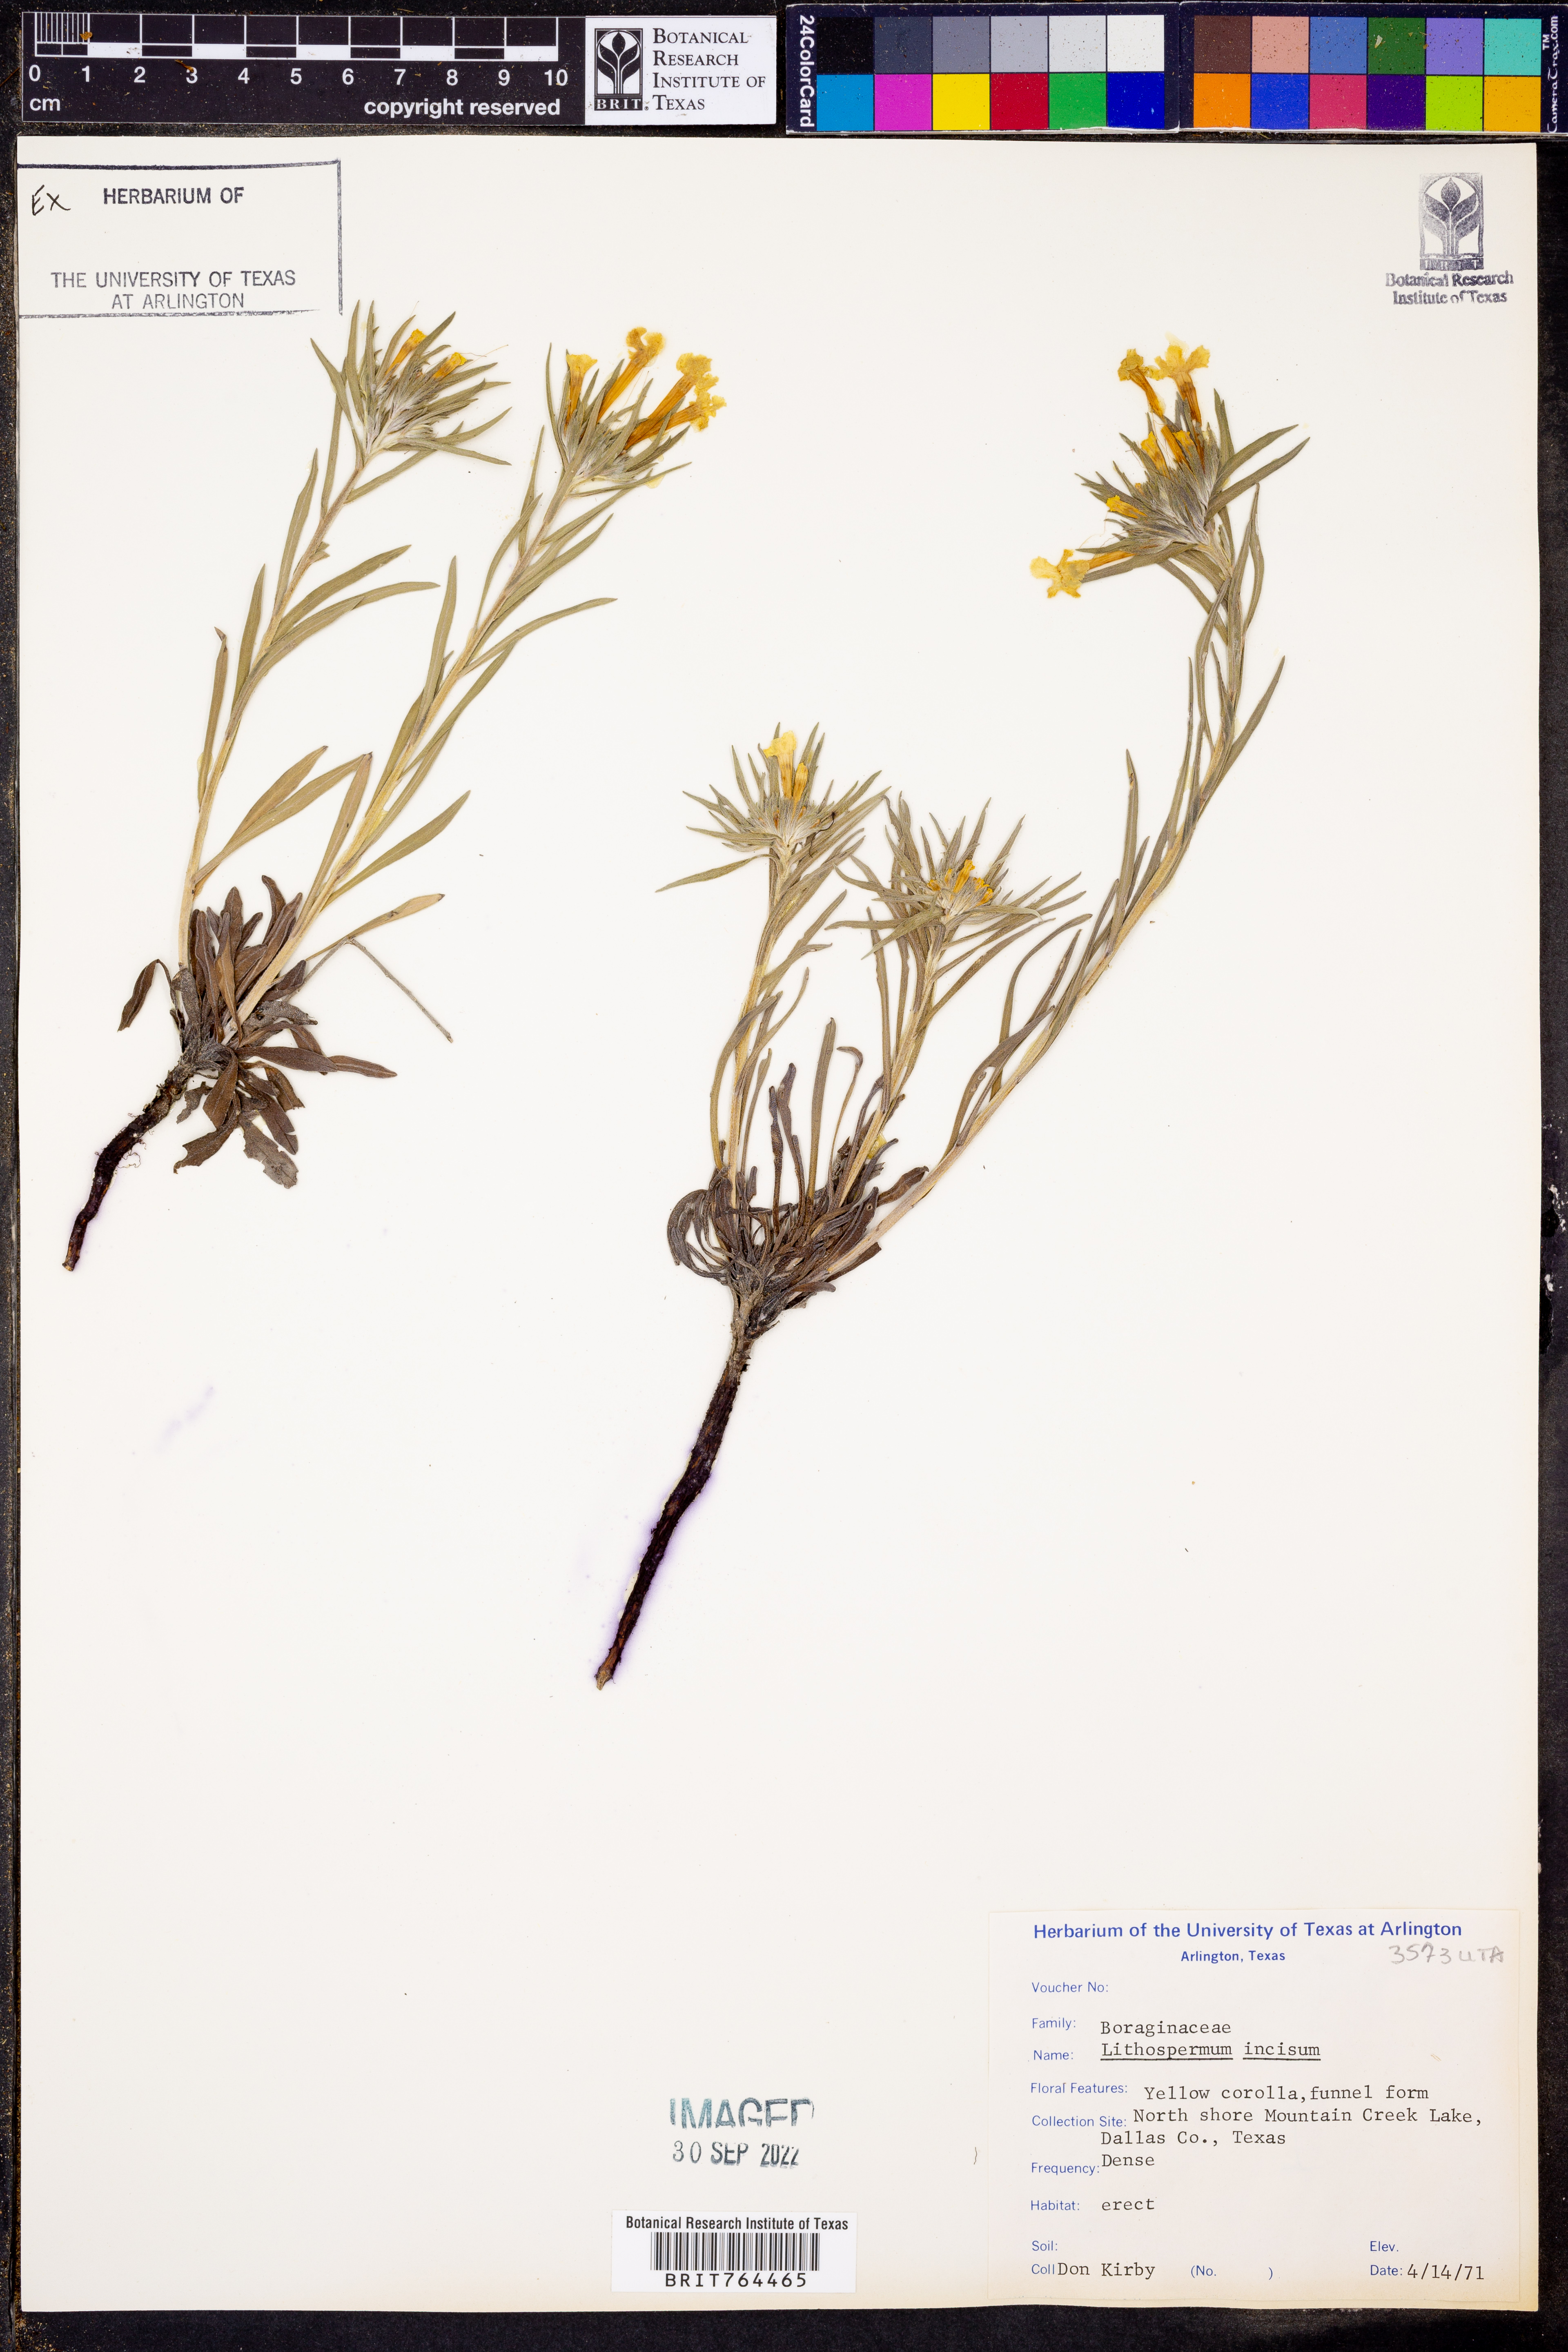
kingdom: Plantae
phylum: Tracheophyta
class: Magnoliopsida
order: Boraginales
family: Boraginaceae
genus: Lithospermum
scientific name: Lithospermum incisum
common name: Fringed gromwell
